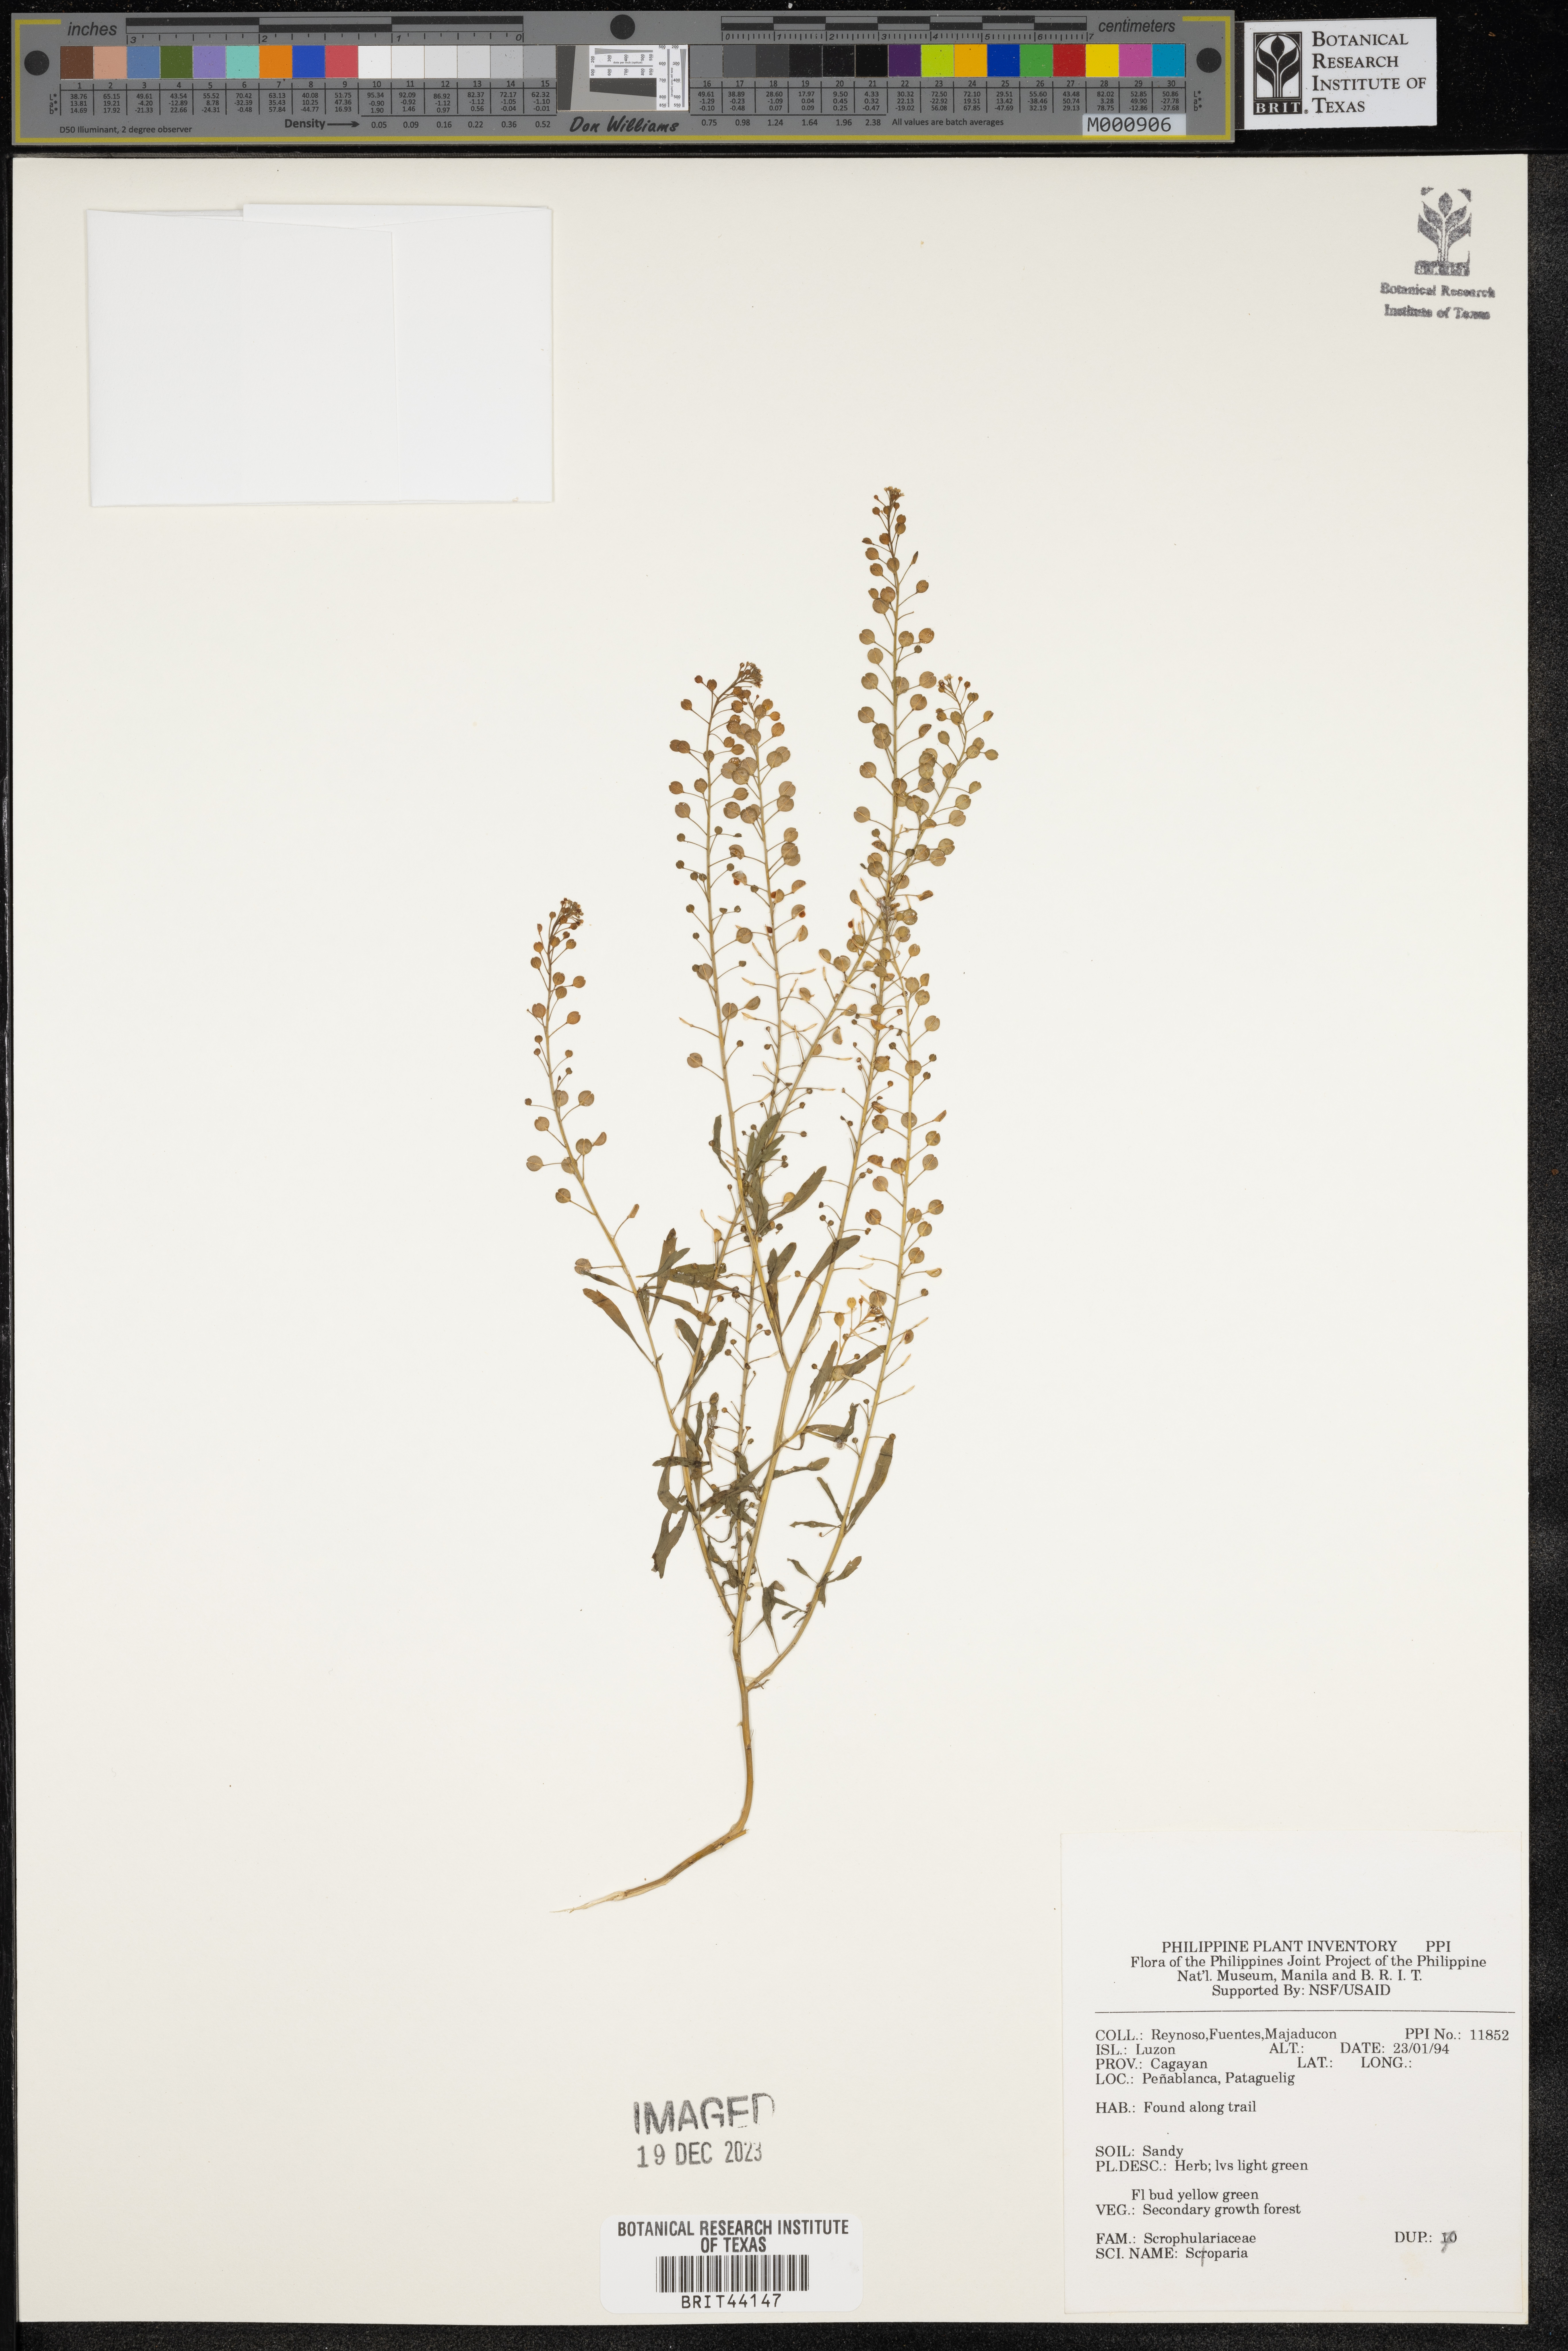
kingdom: Plantae
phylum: Tracheophyta
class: Magnoliopsida
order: Lamiales
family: Plantaginaceae
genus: Scoparia
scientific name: Scoparia
